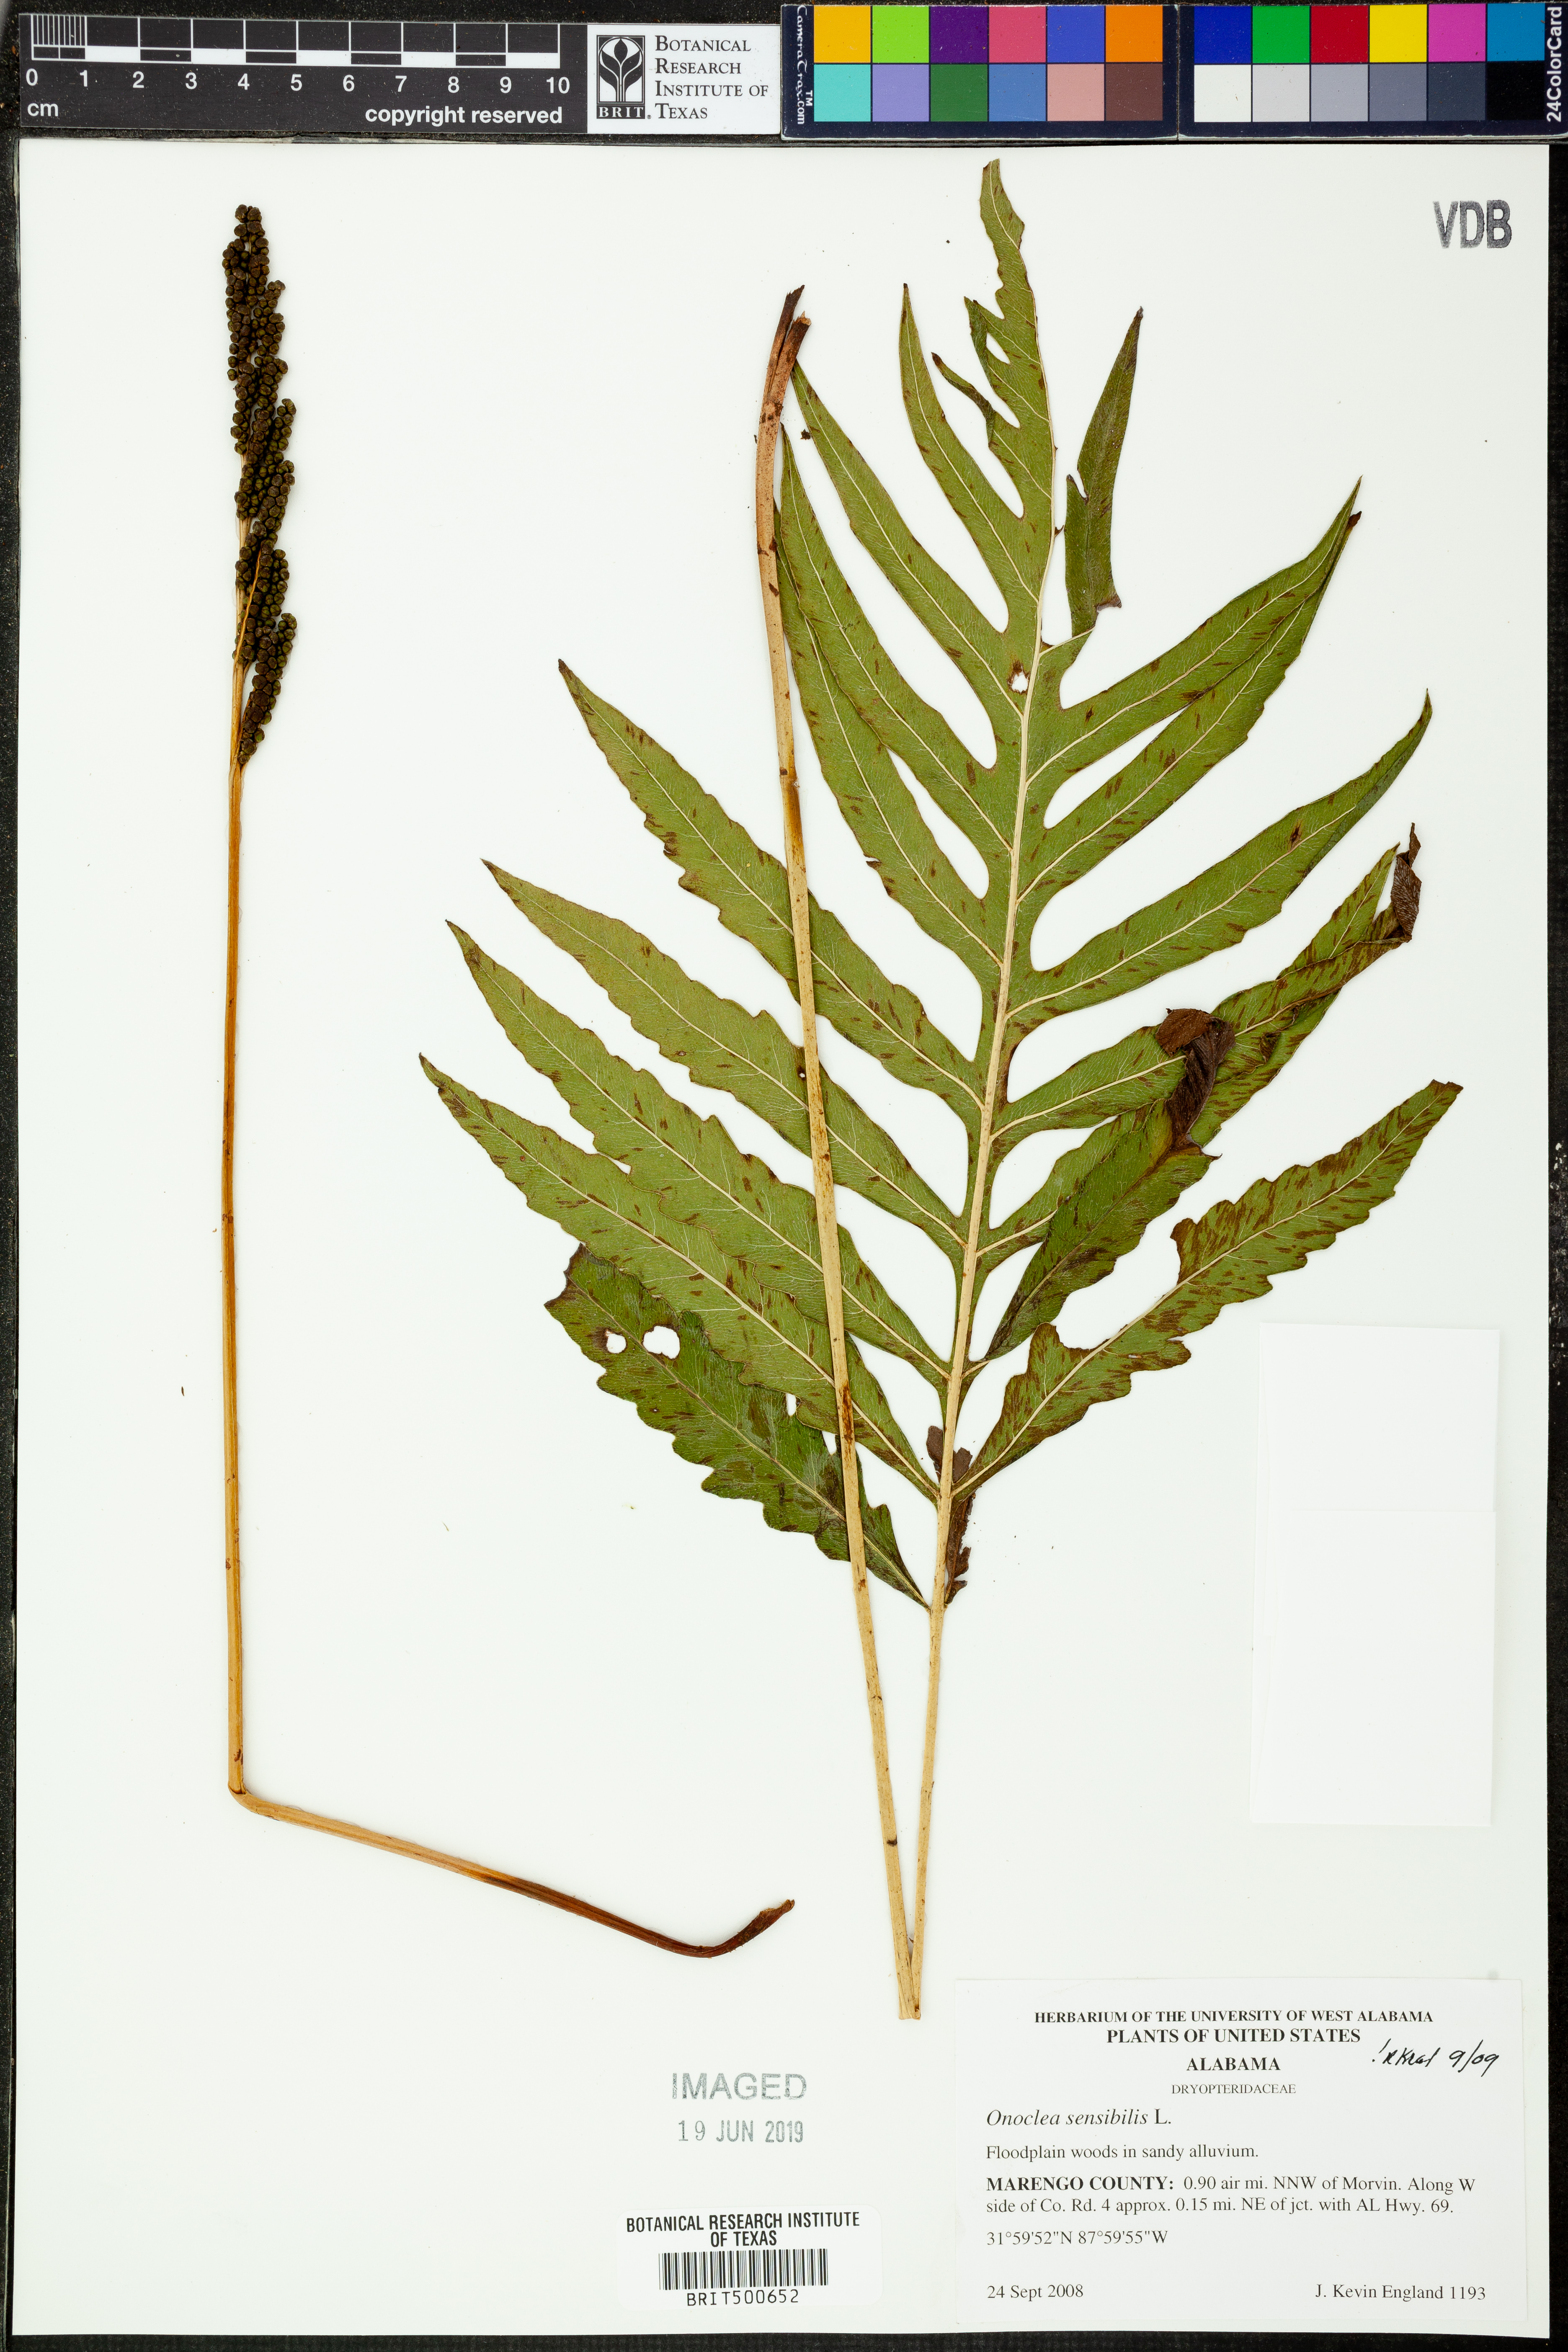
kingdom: Plantae
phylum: Tracheophyta
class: Polypodiopsida
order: Polypodiales
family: Onocleaceae
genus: Onoclea
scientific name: Onoclea sensibilis
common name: Sensitive fern
